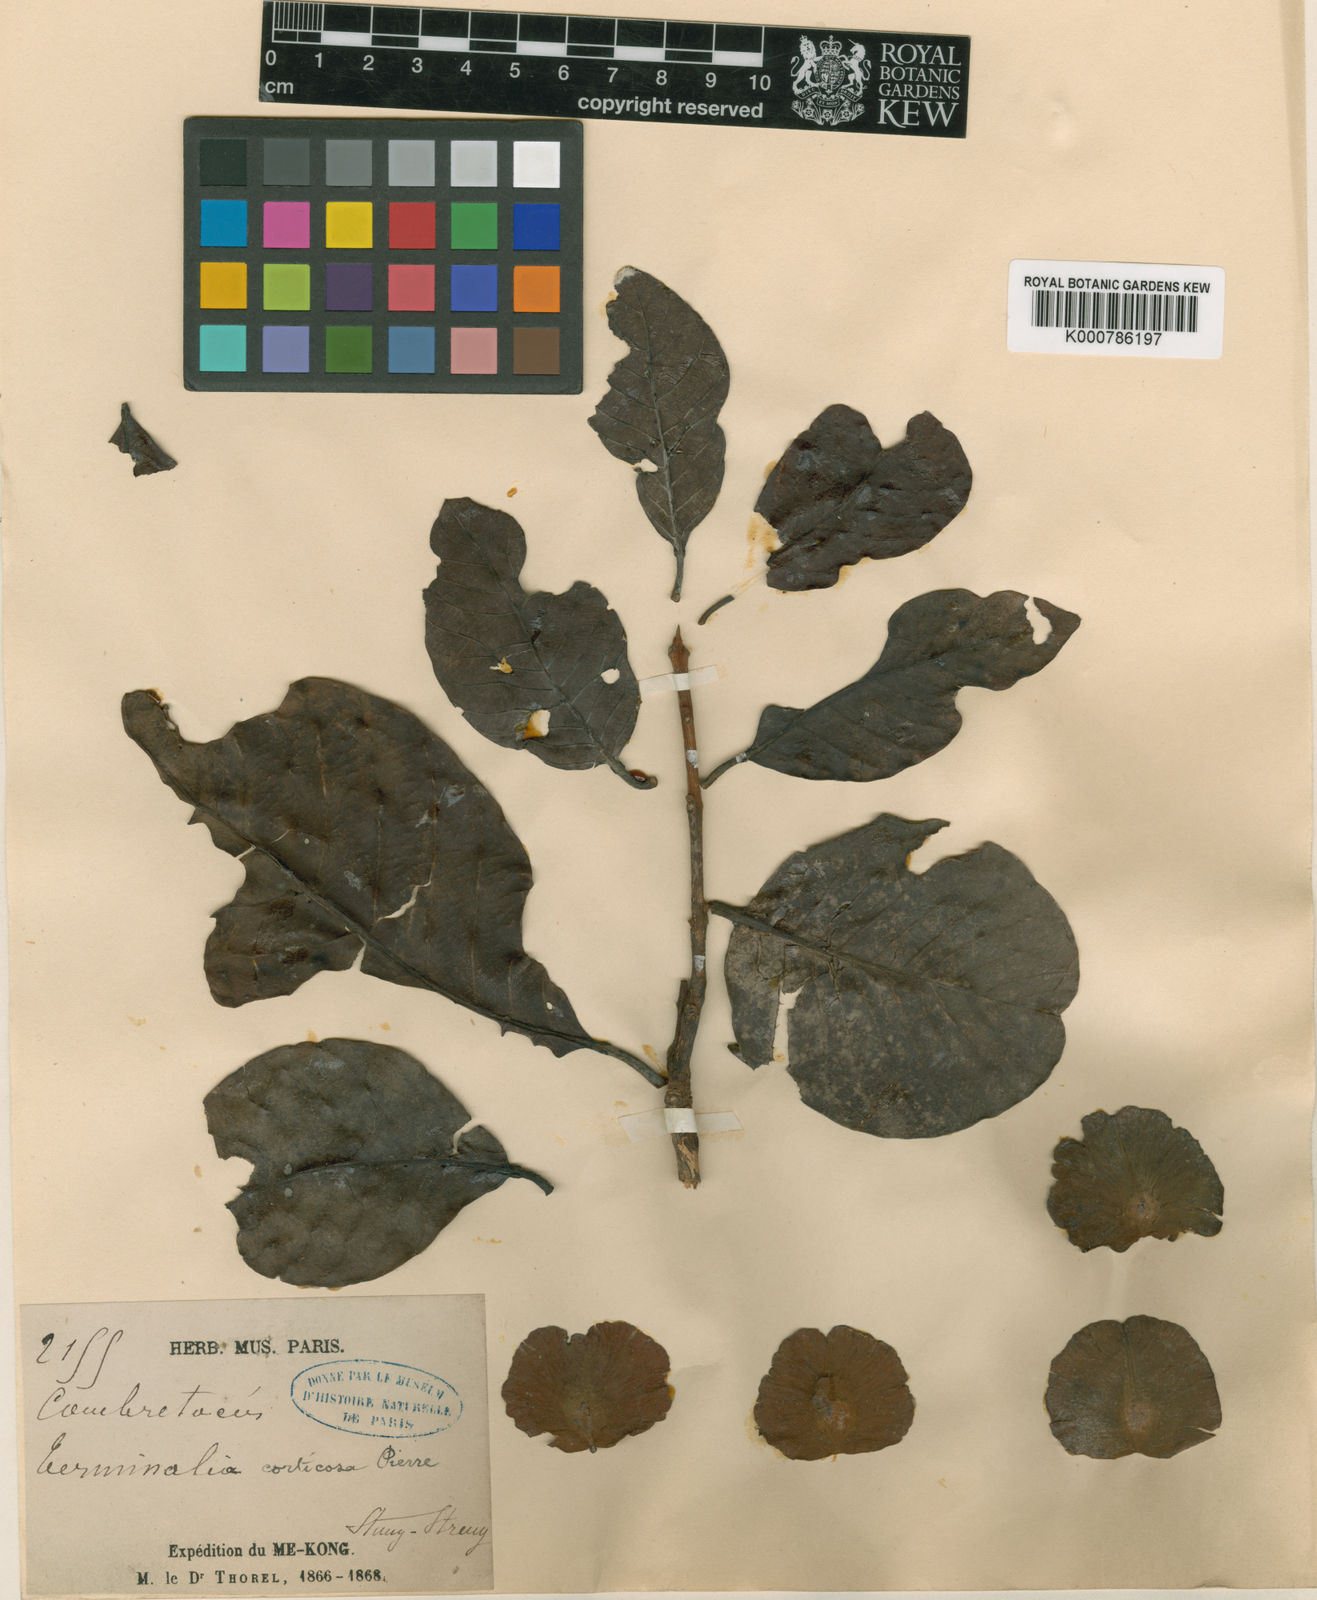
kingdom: Plantae
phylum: Tracheophyta
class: Magnoliopsida
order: Myrtales
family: Combretaceae
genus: Terminalia
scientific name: Terminalia corticosa
